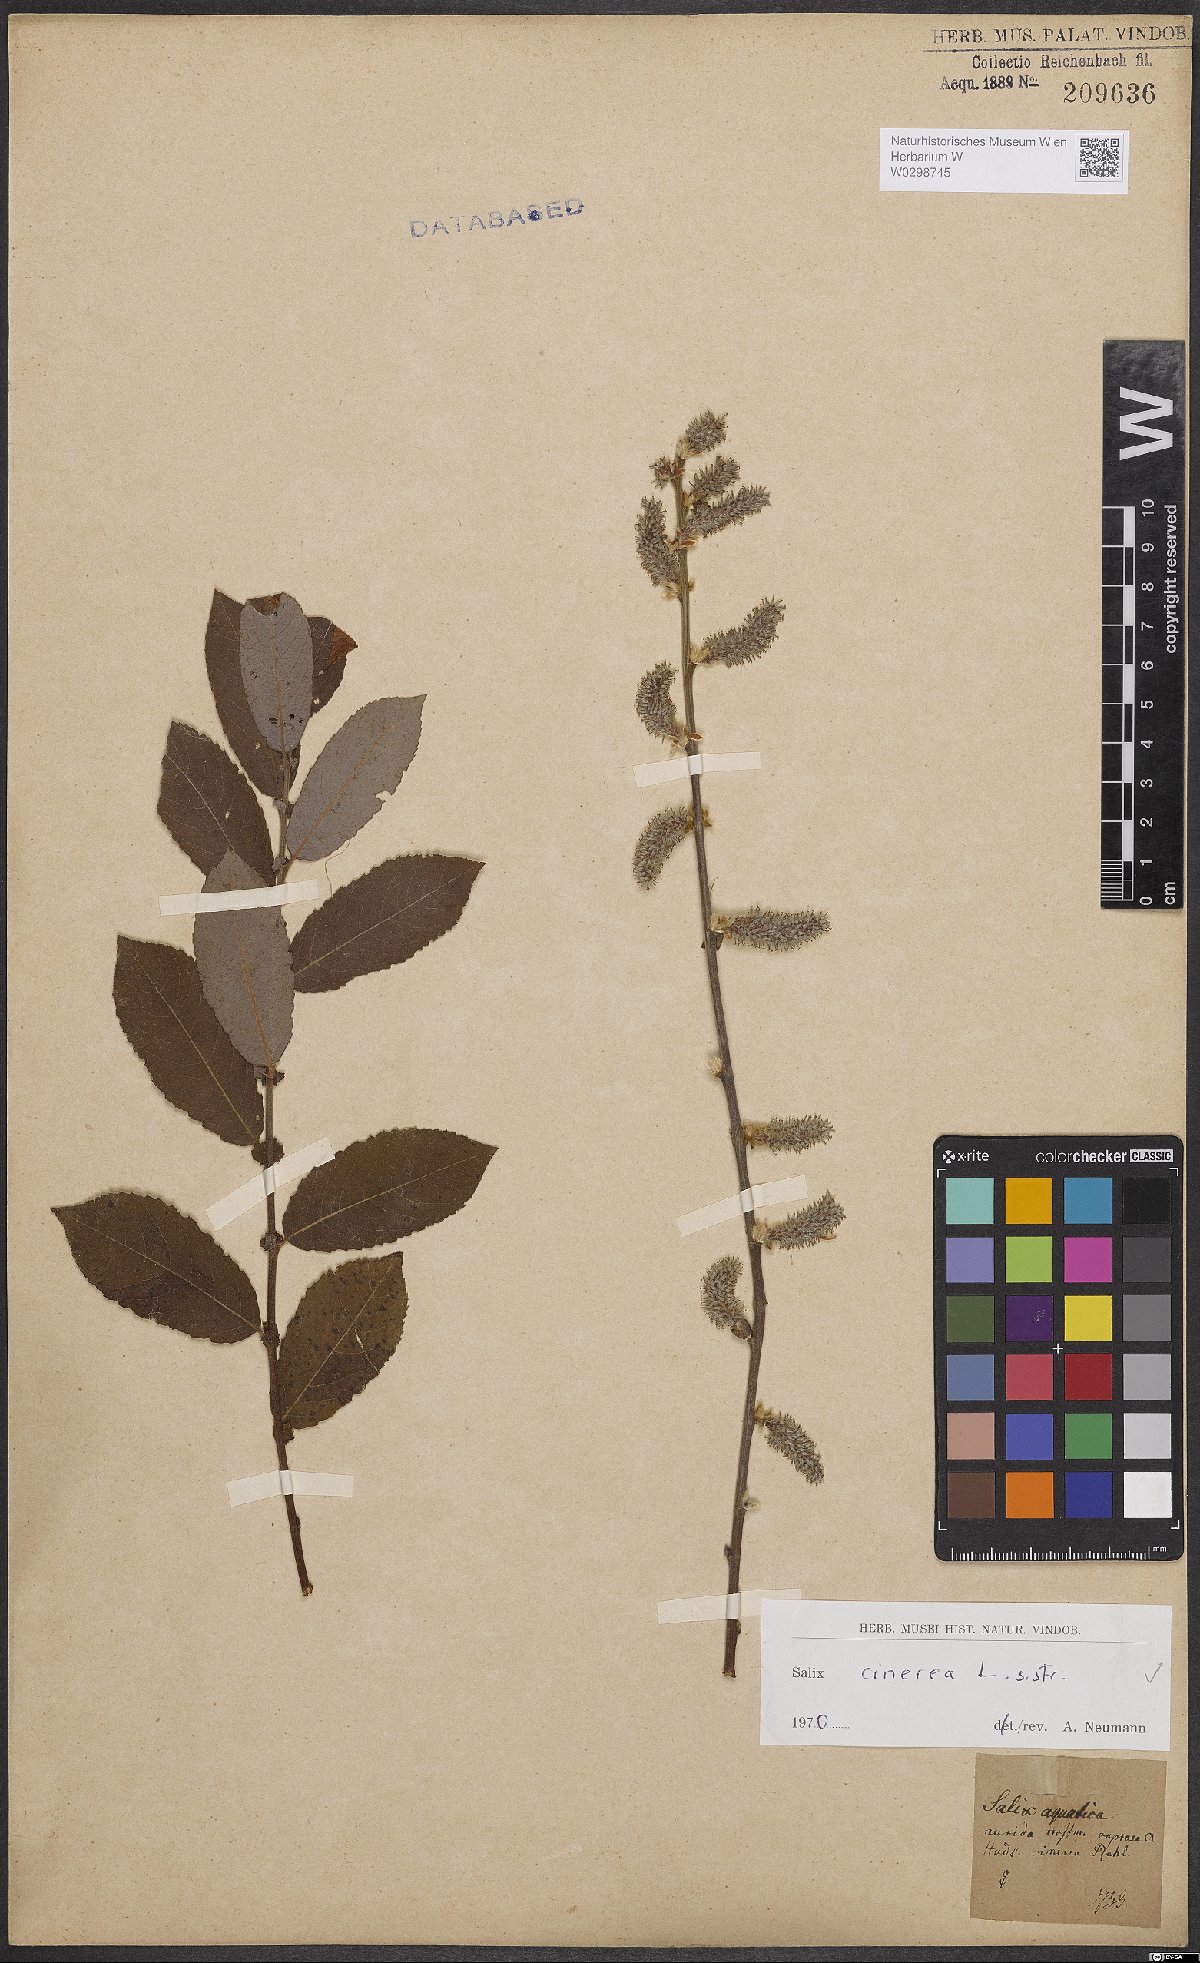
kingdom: Plantae
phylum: Tracheophyta
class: Magnoliopsida
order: Malpighiales
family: Salicaceae
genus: Salix
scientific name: Salix cinerea
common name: Common sallow
